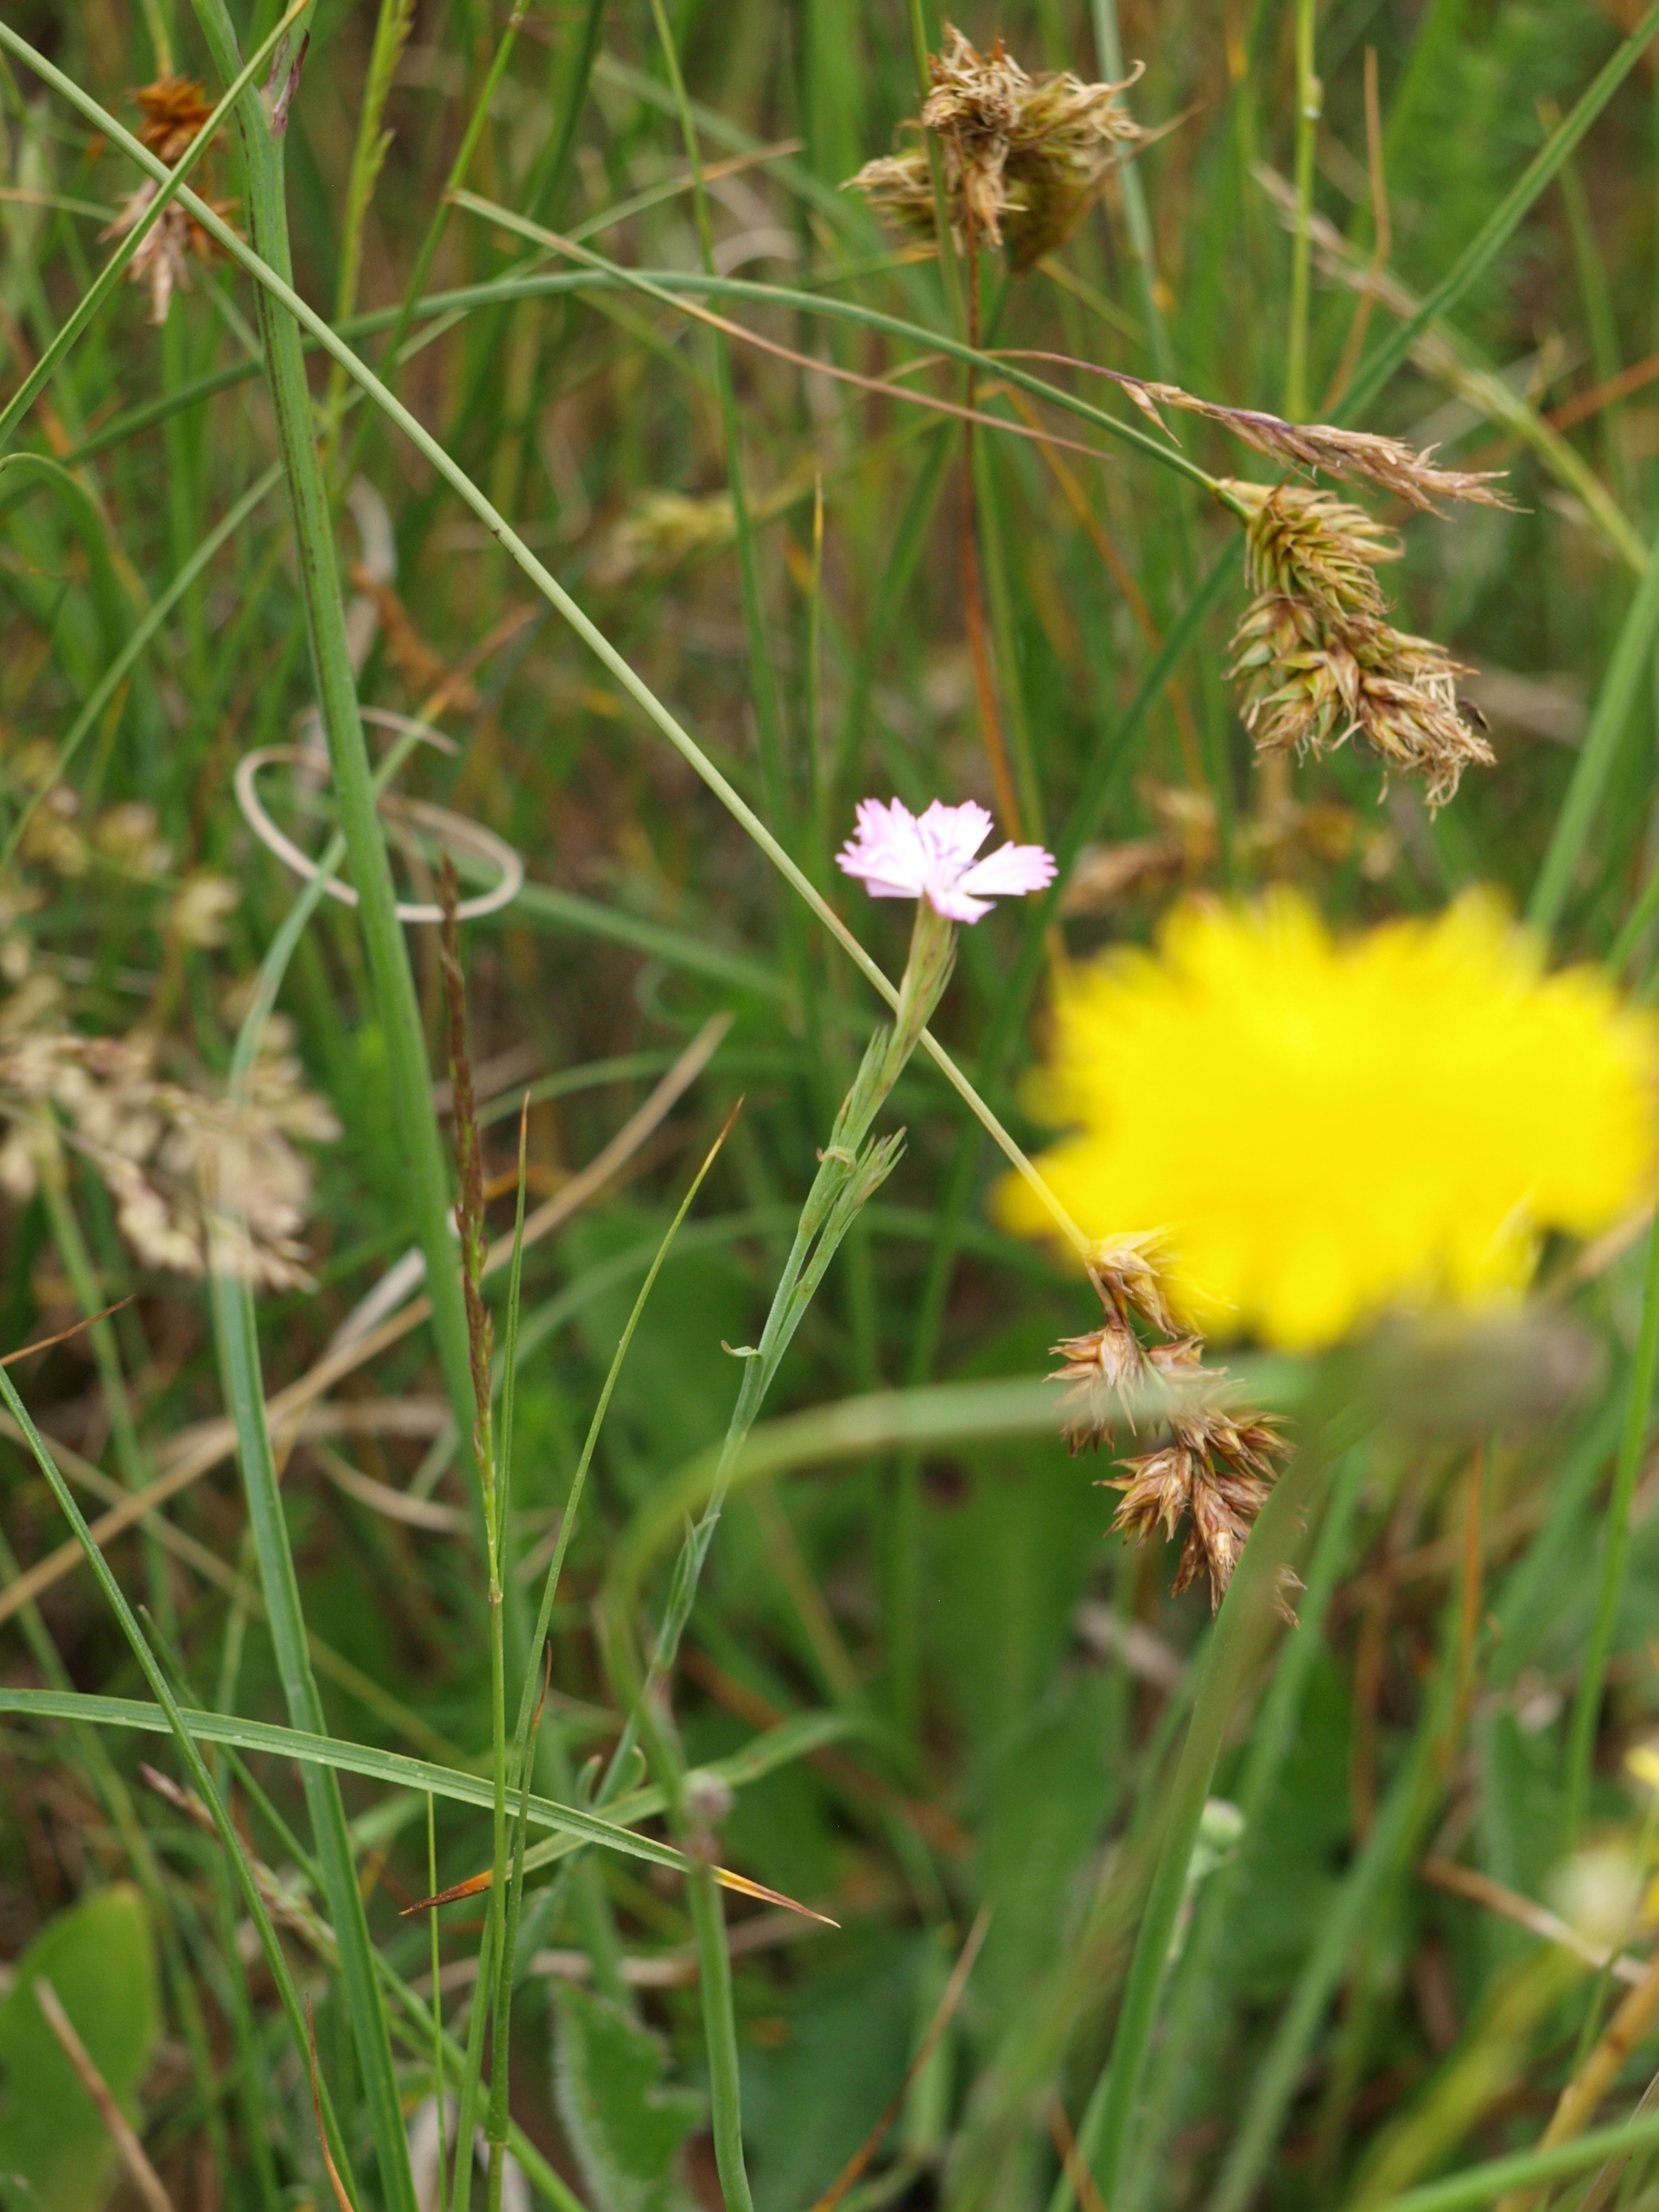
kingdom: Plantae
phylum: Tracheophyta
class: Magnoliopsida
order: Caryophyllales
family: Caryophyllaceae
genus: Dianthus
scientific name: Dianthus deltoides
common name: Bakke-nellike
